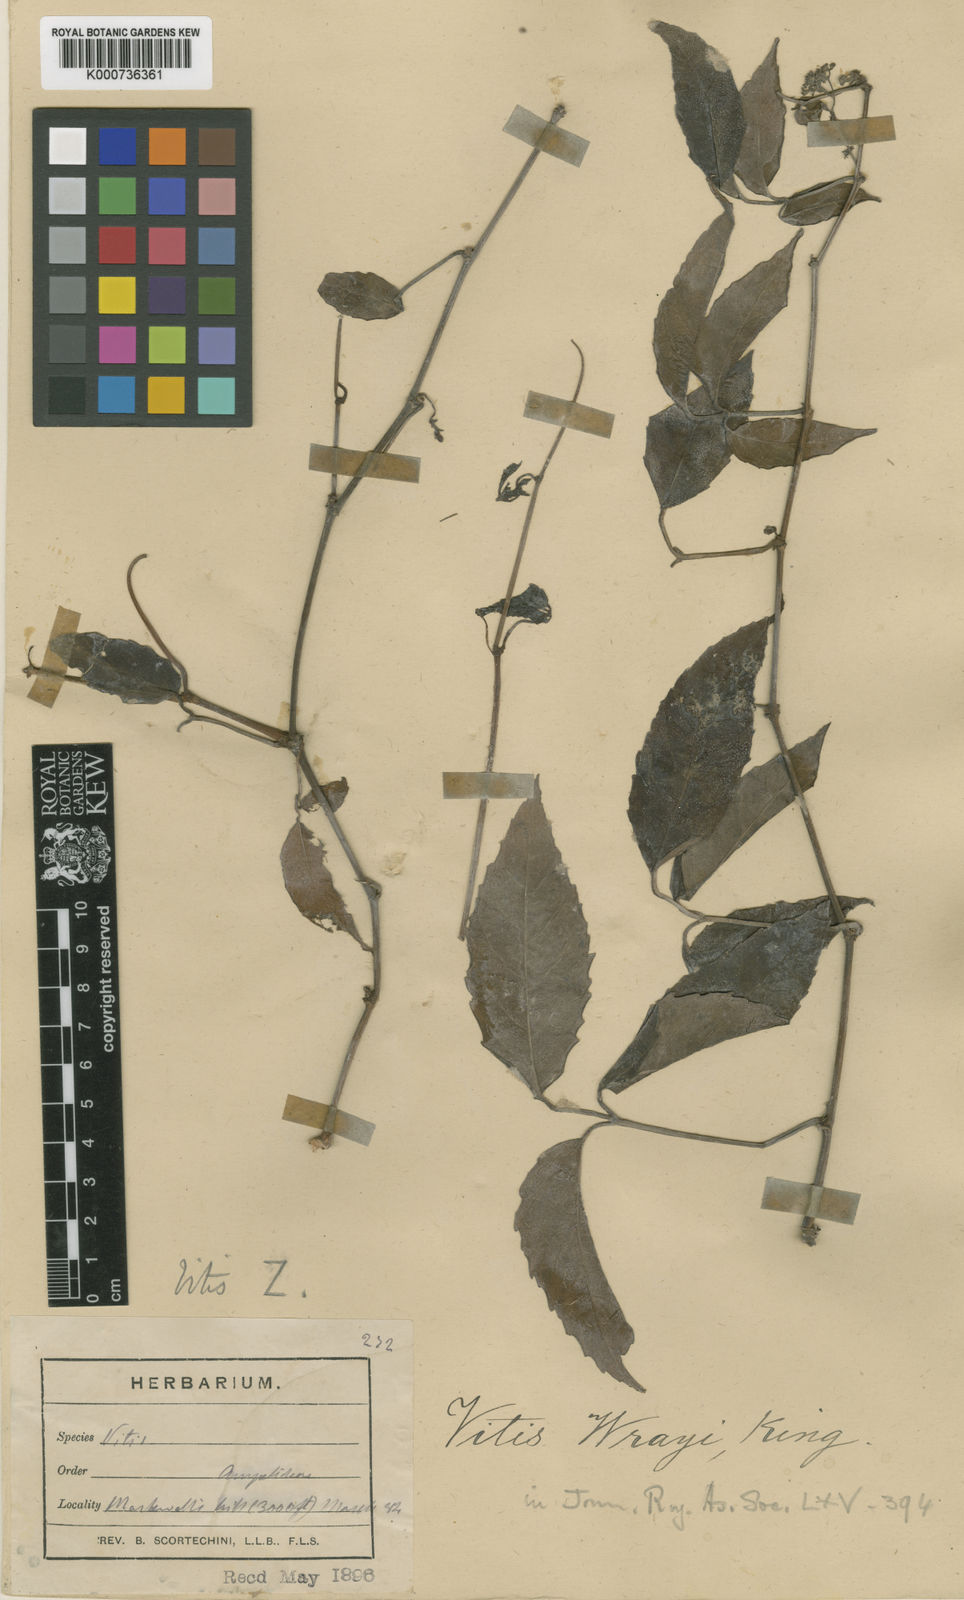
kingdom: Plantae
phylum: Tracheophyta
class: Magnoliopsida
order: Vitales
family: Vitaceae
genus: Tetrastigma
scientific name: Tetrastigma dubium
